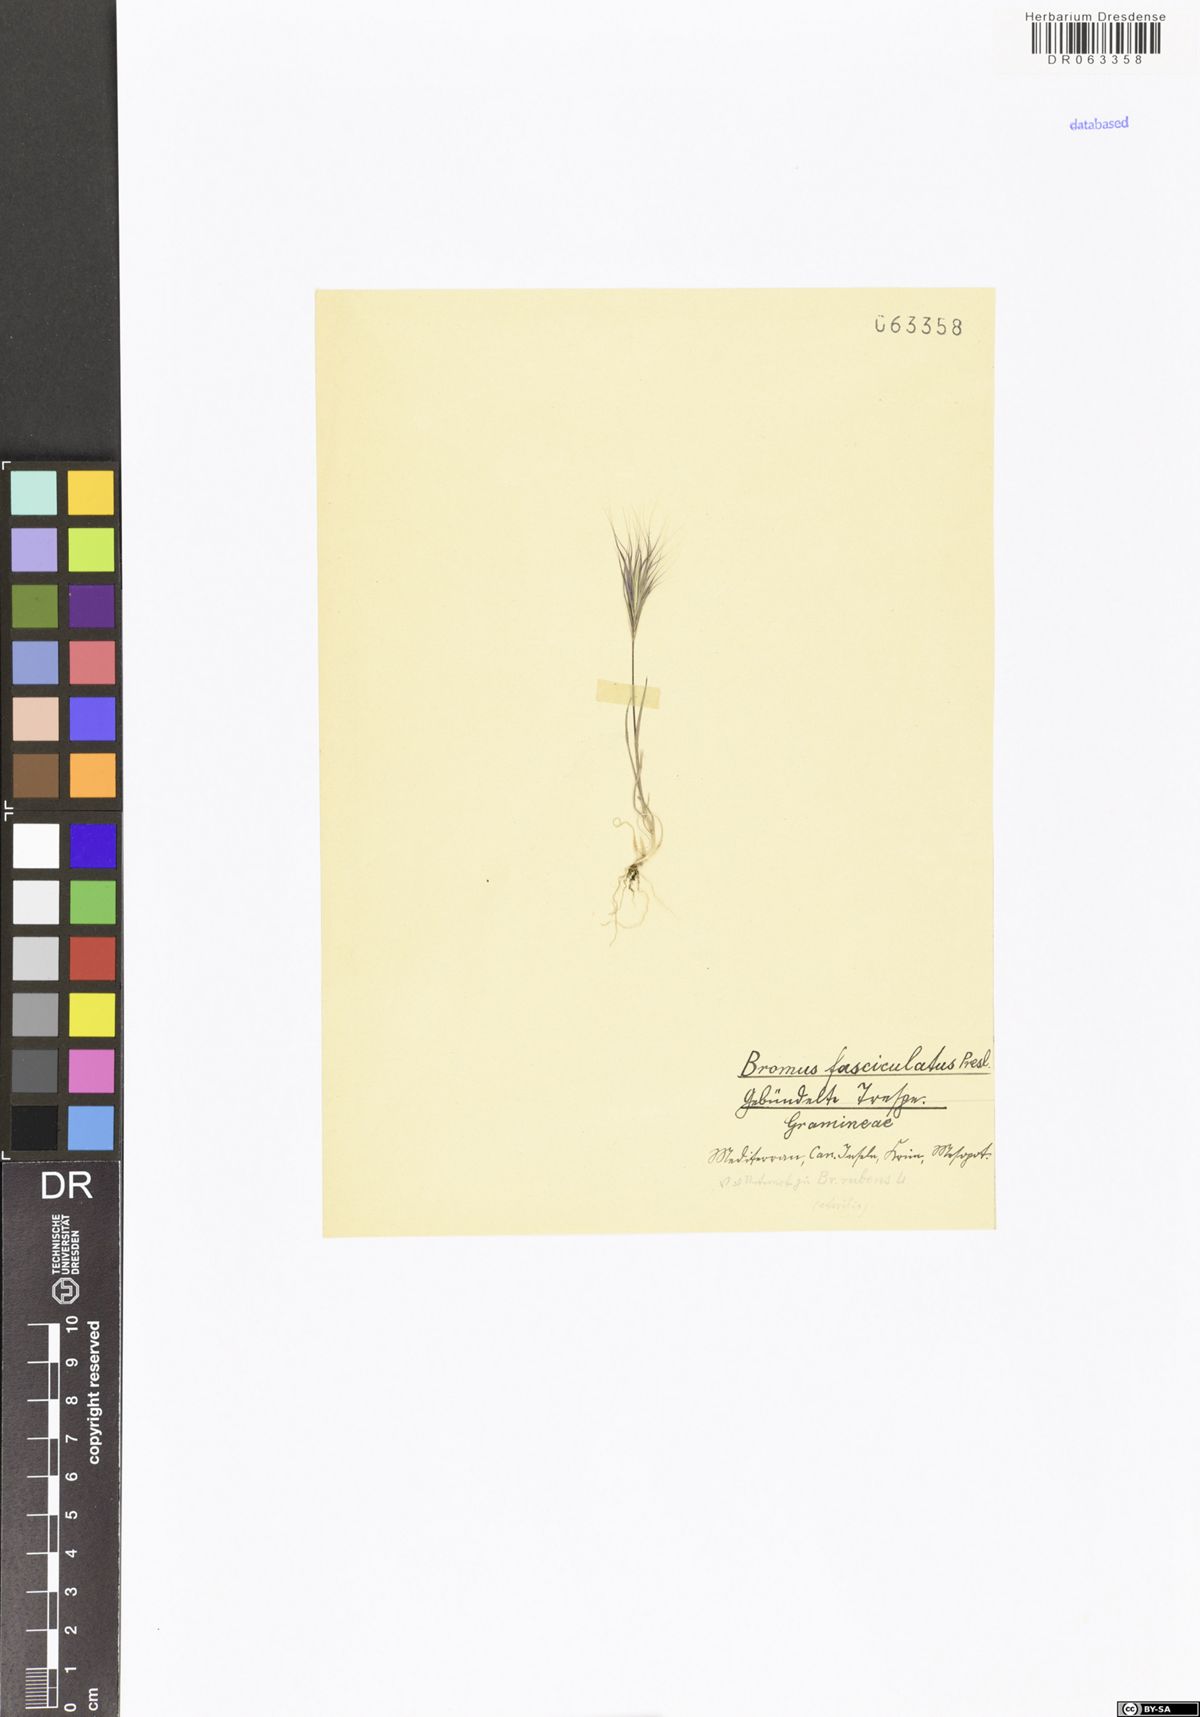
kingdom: Plantae
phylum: Tracheophyta
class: Liliopsida
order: Poales
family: Poaceae
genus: Bromus
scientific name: Bromus fasciculatus
